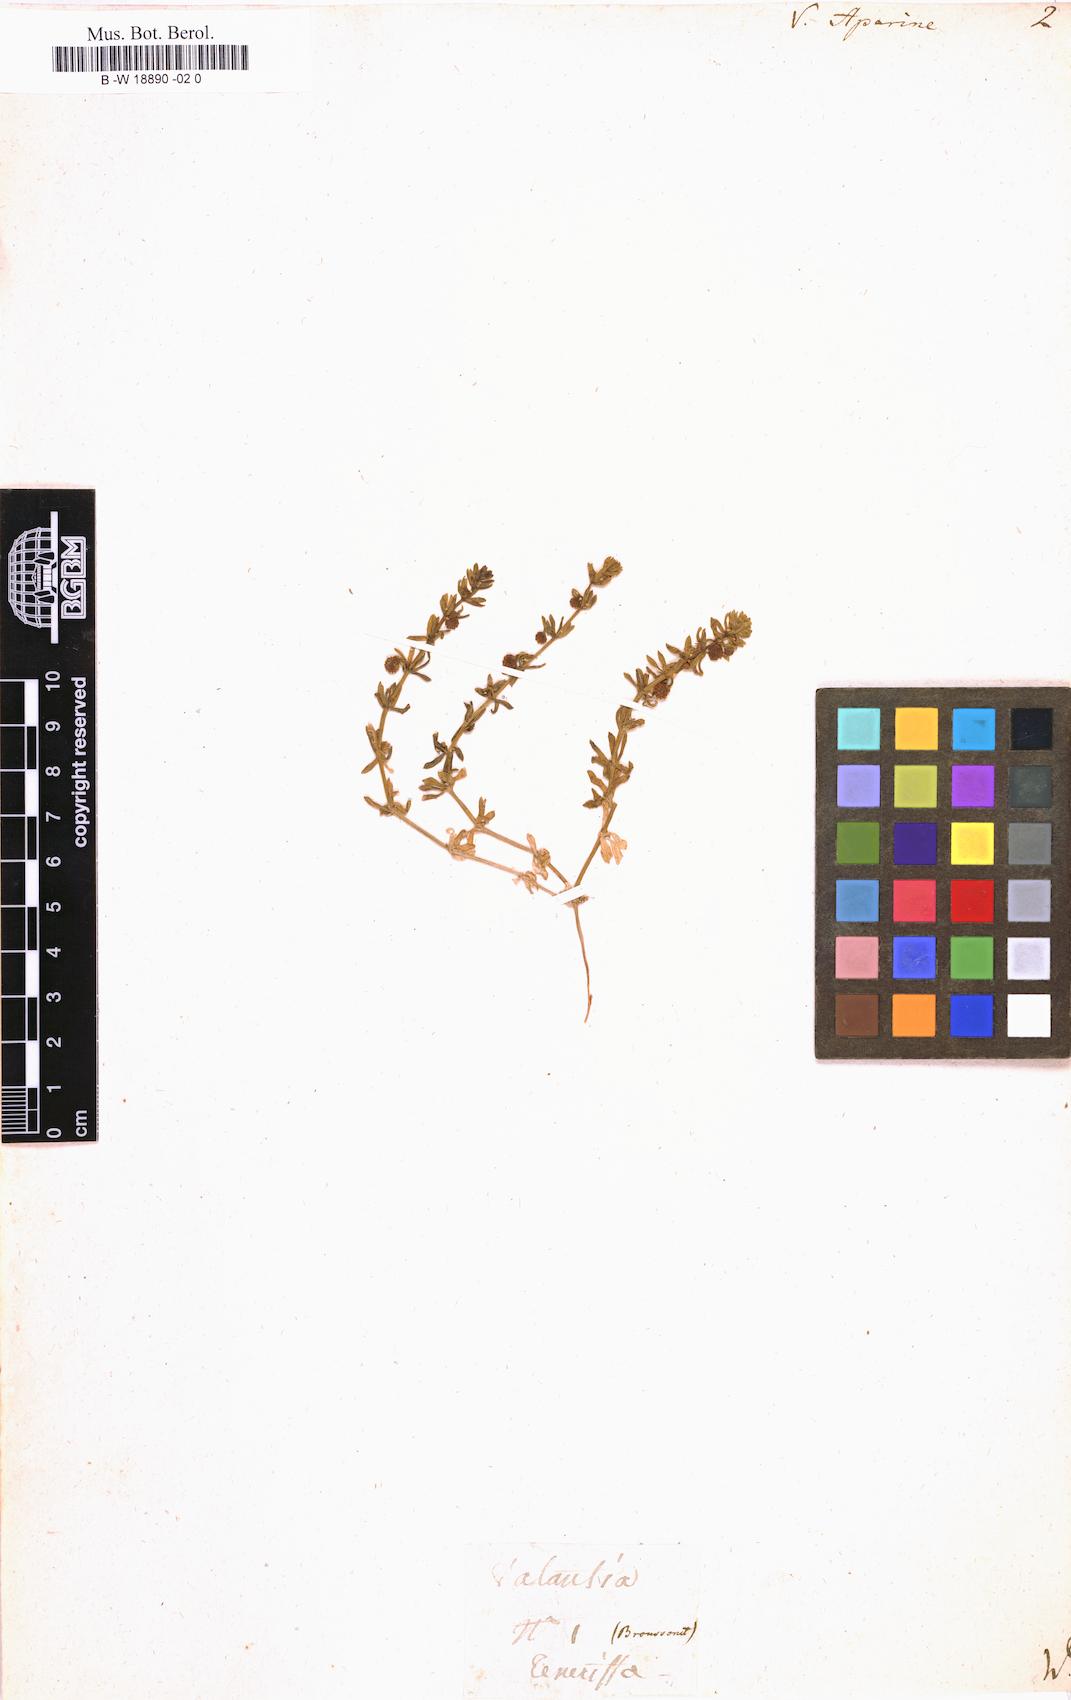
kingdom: Plantae
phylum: Tracheophyta
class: Magnoliopsida
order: Gentianales
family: Rubiaceae
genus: Valantia
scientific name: Valantia aparine
